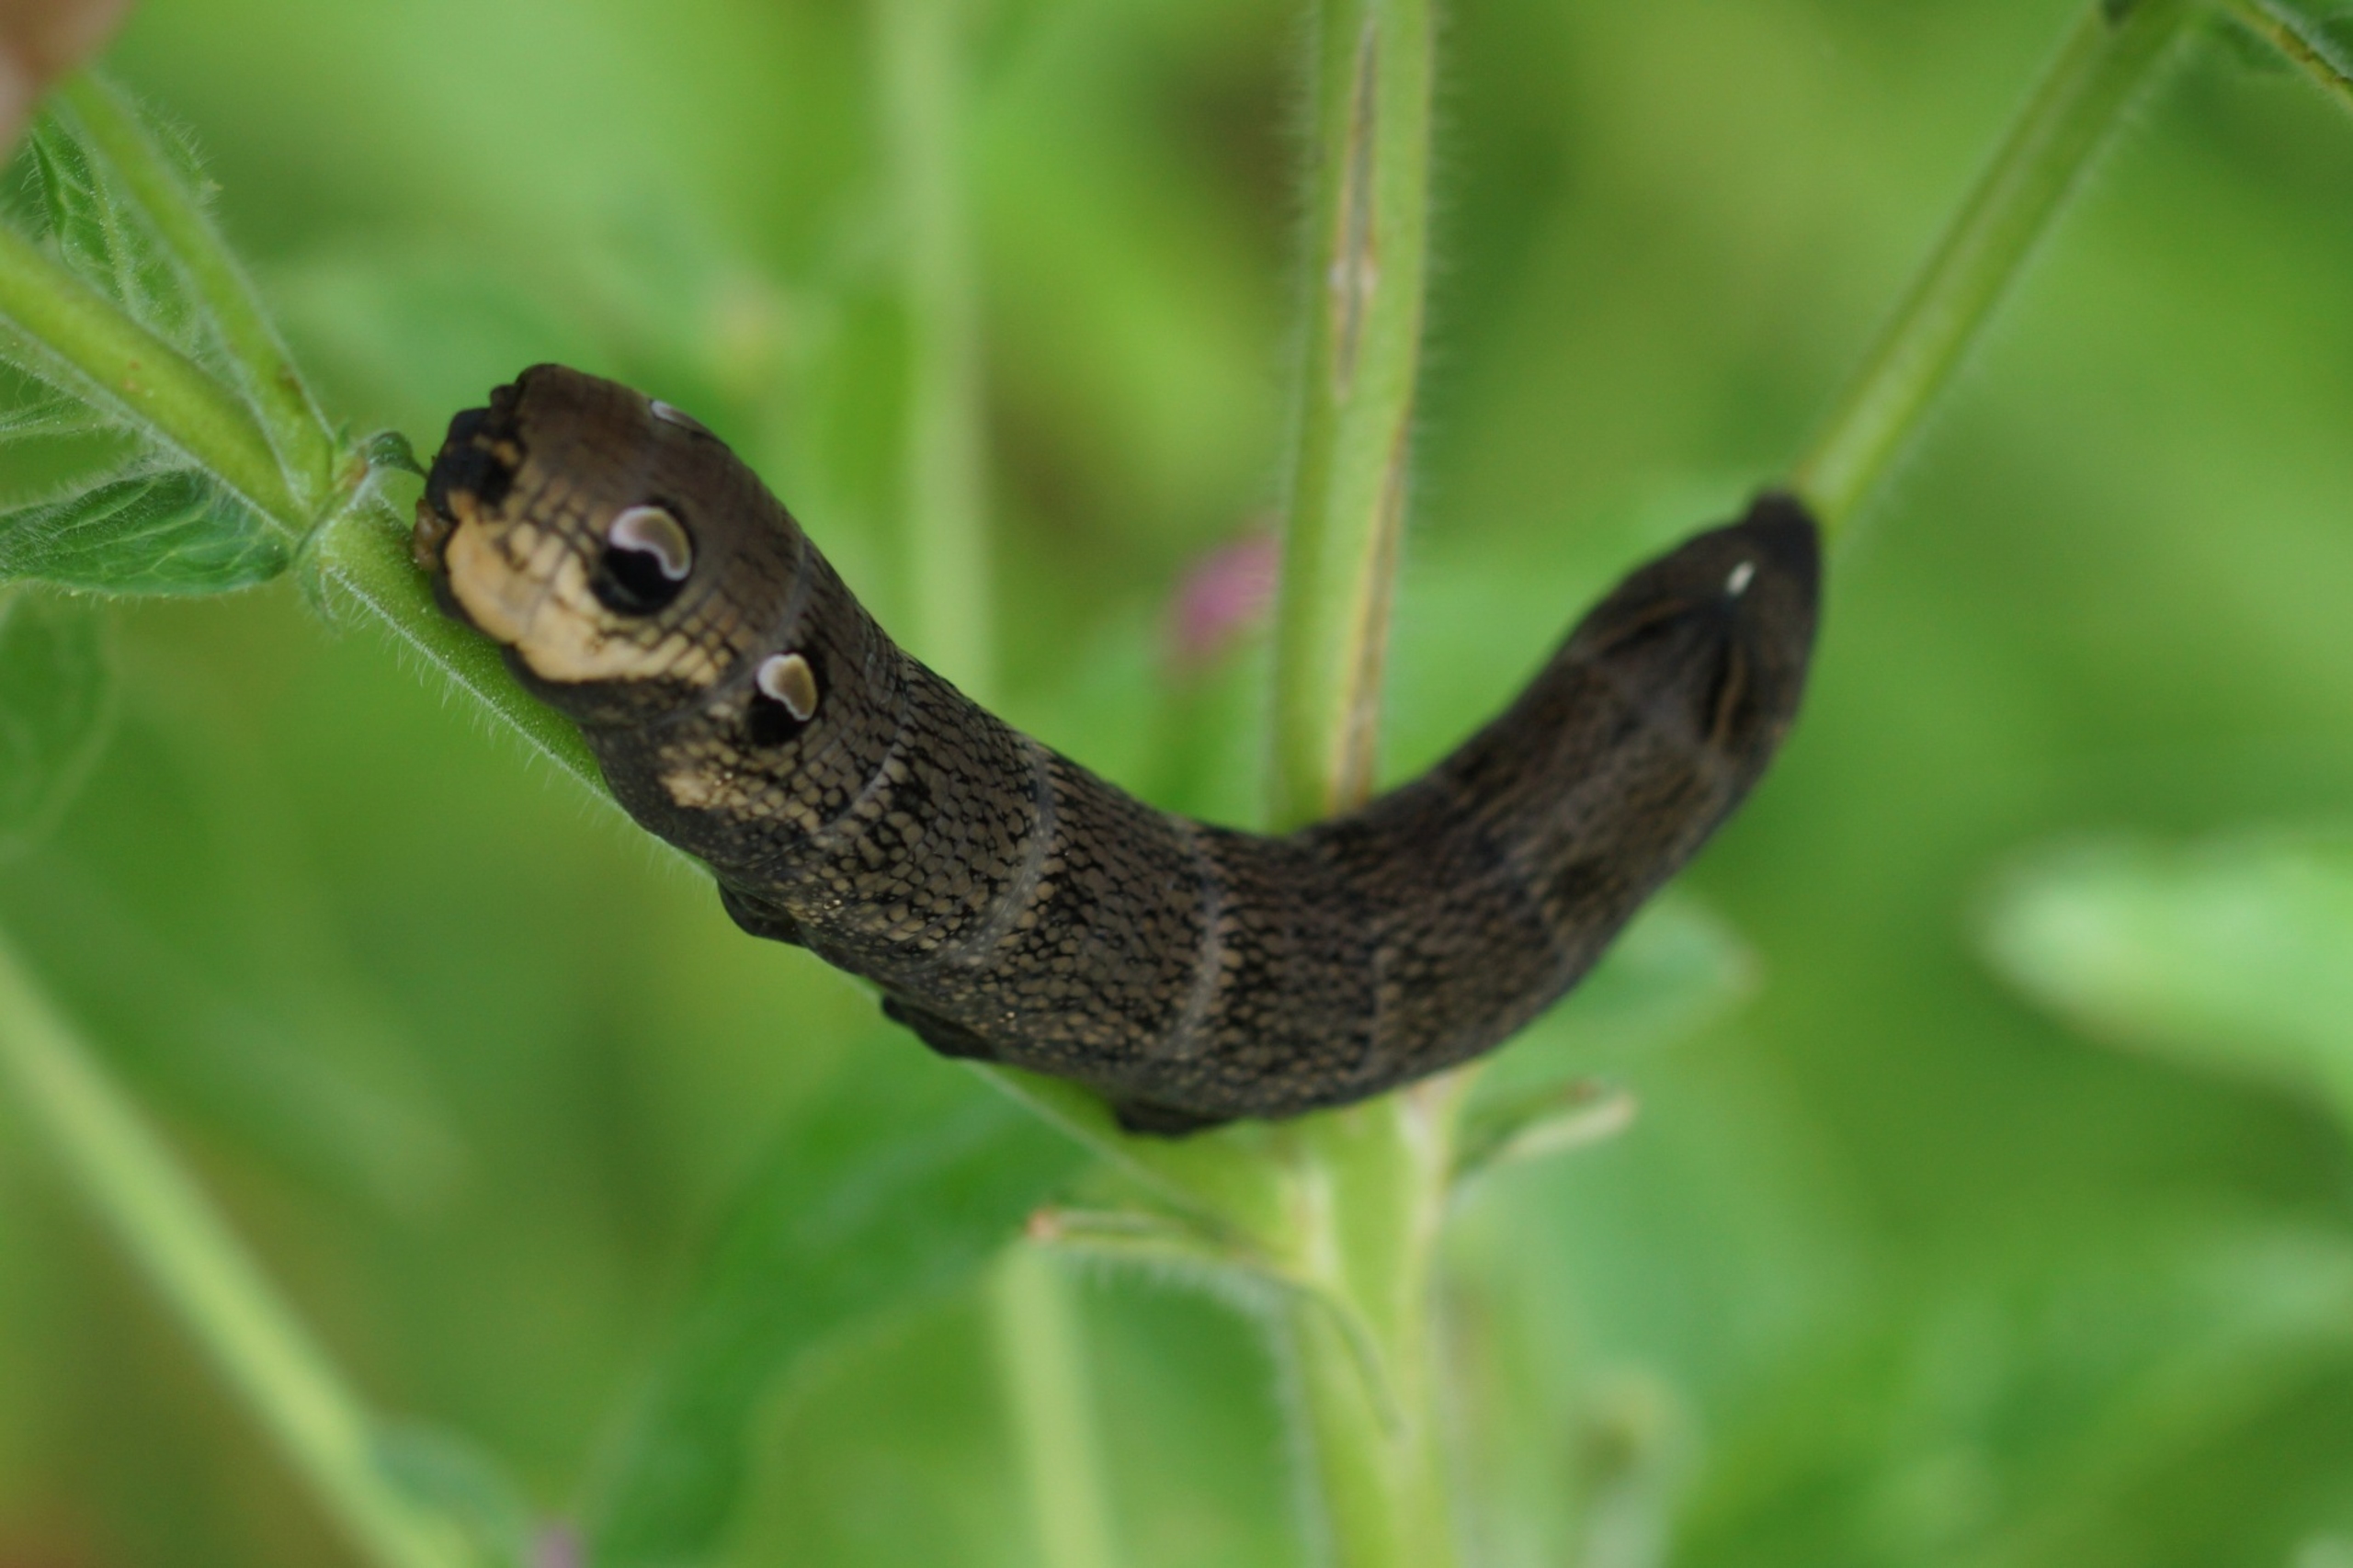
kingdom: Animalia
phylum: Arthropoda
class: Insecta
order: Lepidoptera
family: Sphingidae
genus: Deilephila
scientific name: Deilephila elpenor
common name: Dueurtsværmer
